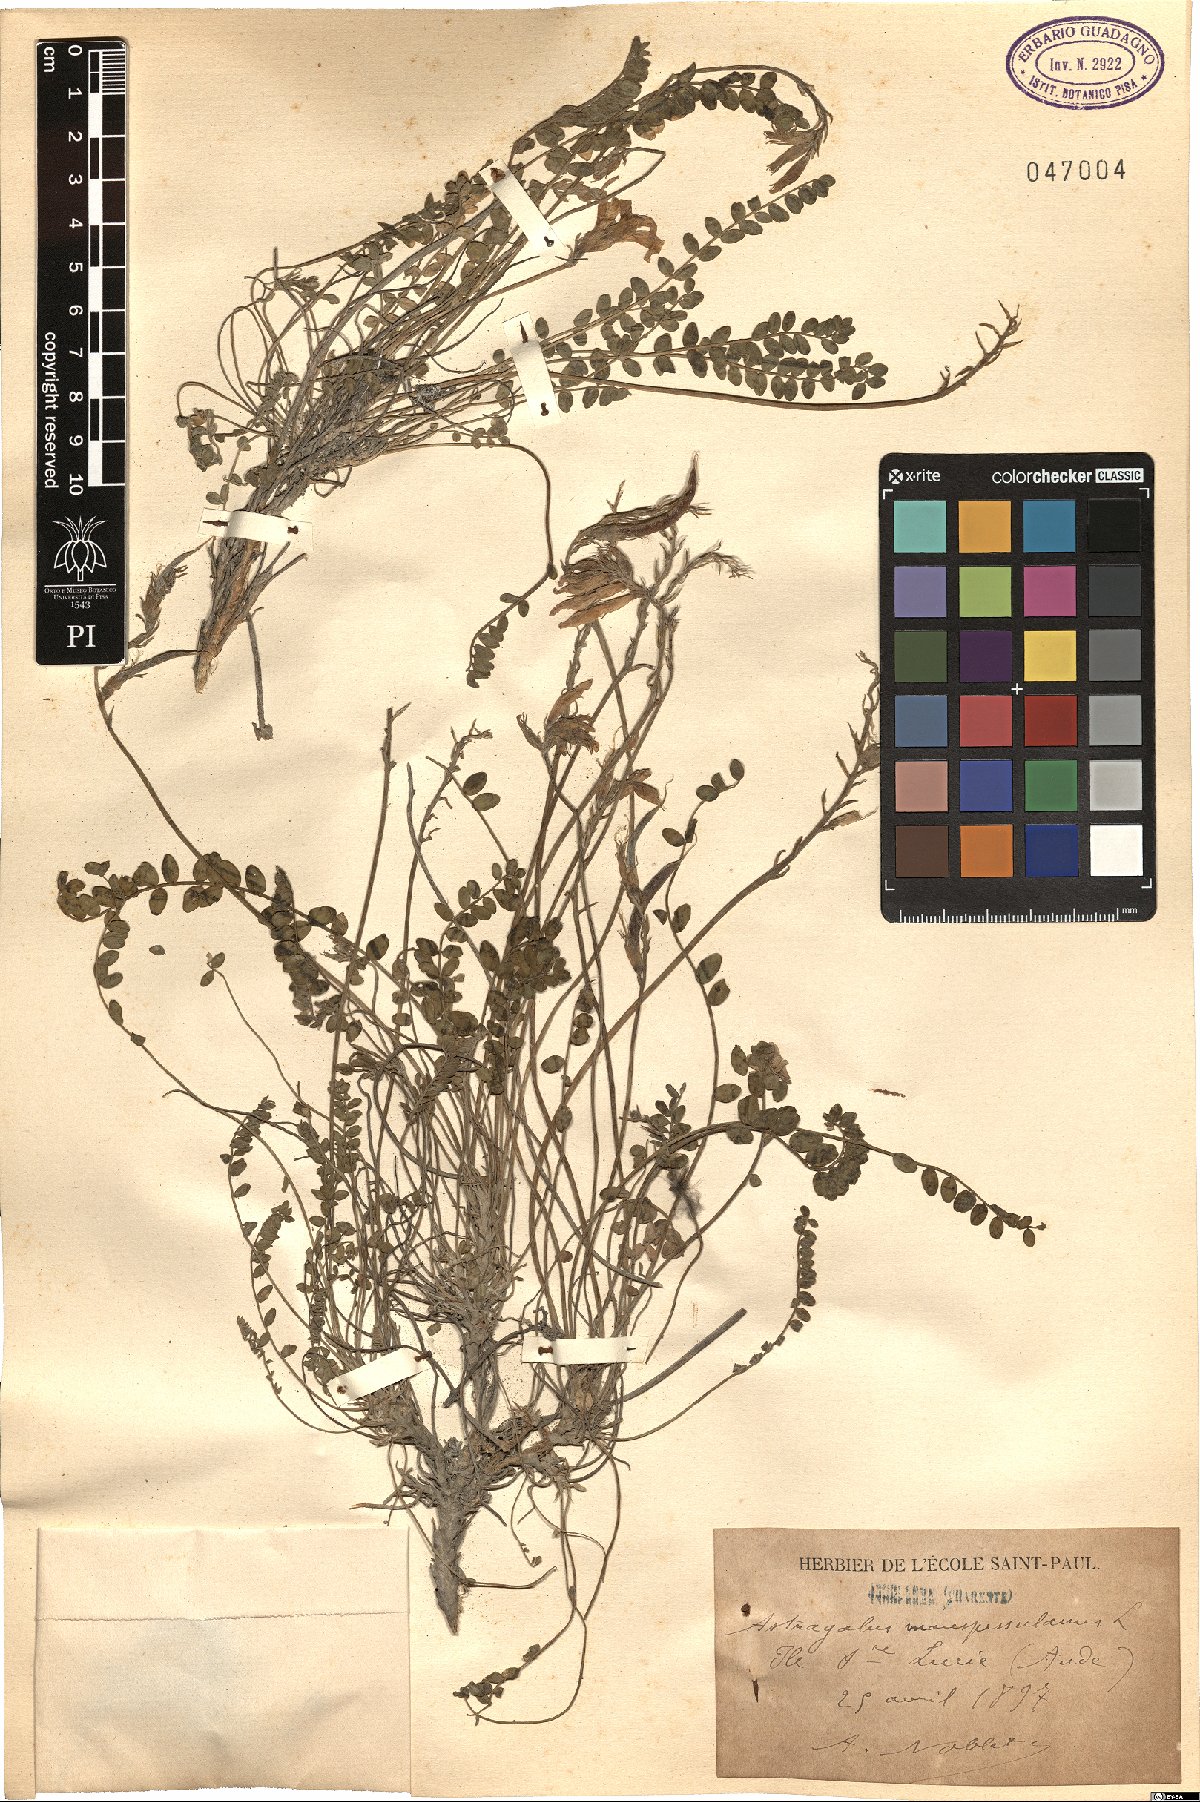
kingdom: Plantae
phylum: Tracheophyta
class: Magnoliopsida
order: Fabales
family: Fabaceae
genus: Astragalus
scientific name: Astragalus monspessulanus
